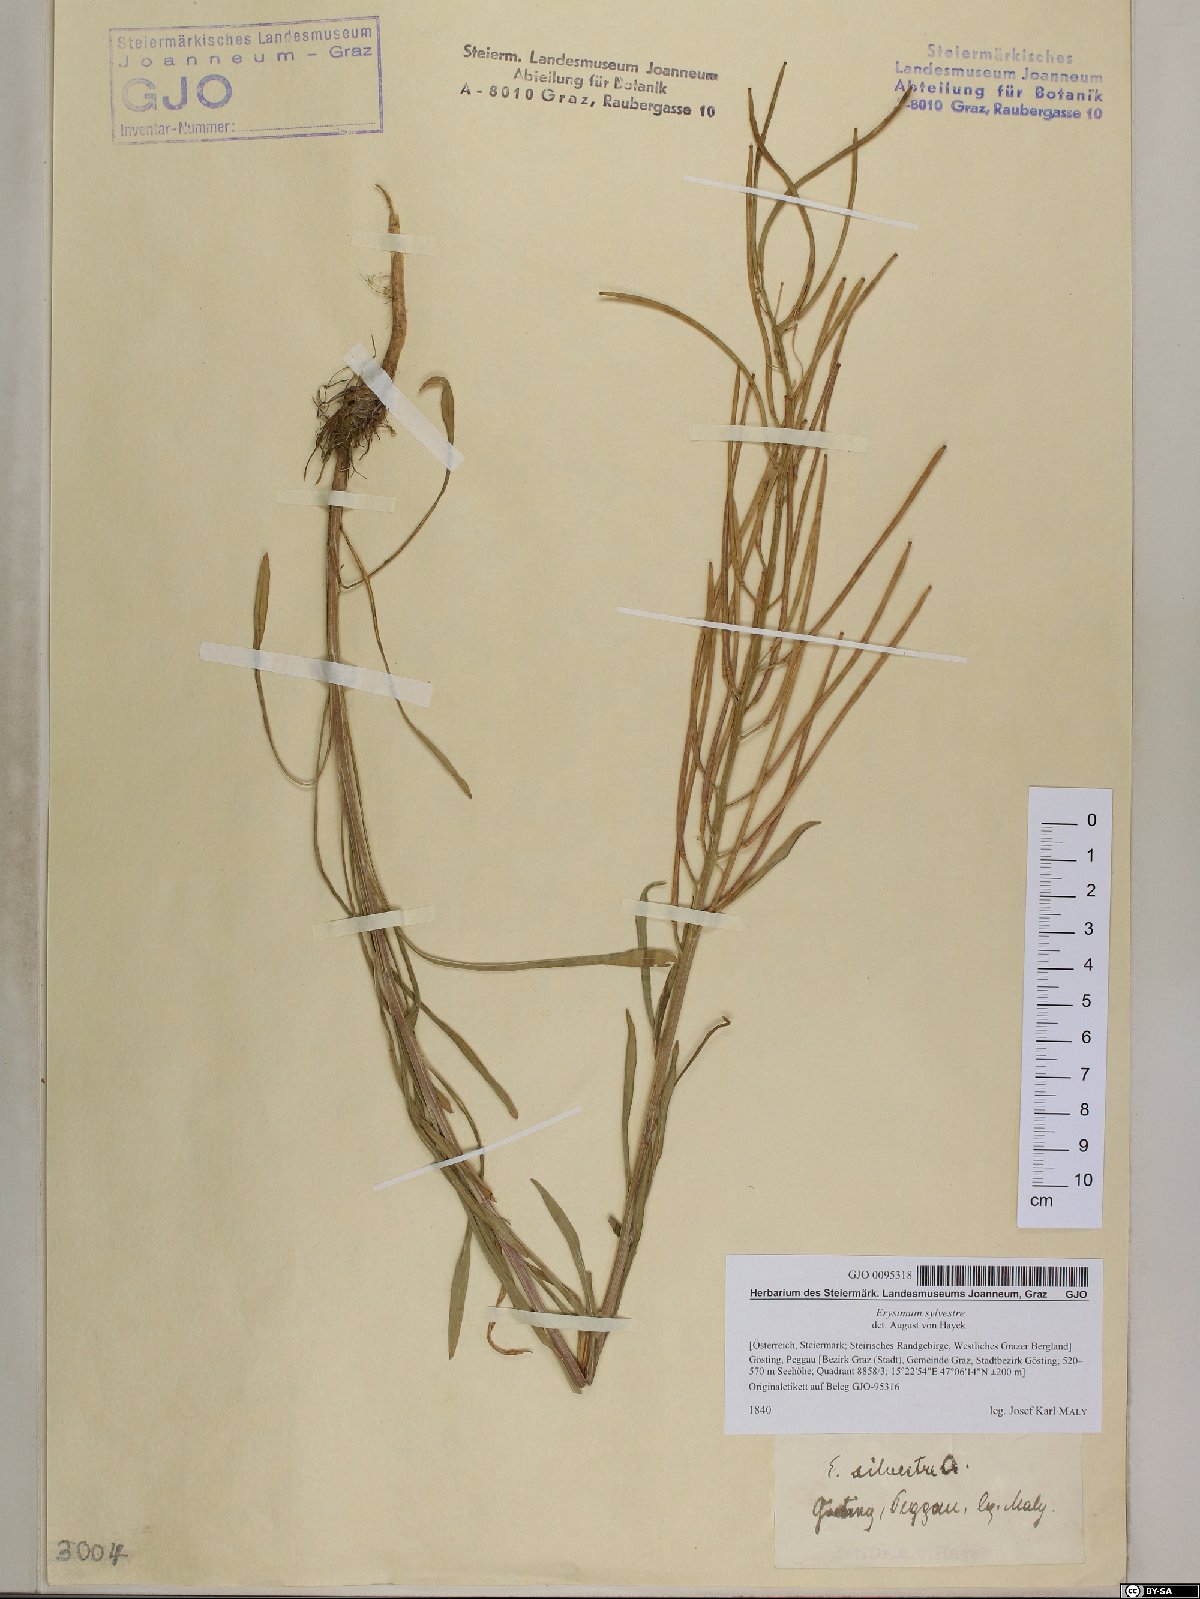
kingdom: Plantae
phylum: Tracheophyta
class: Magnoliopsida
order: Brassicales
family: Brassicaceae
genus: Erysimum
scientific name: Erysimum sylvestre
